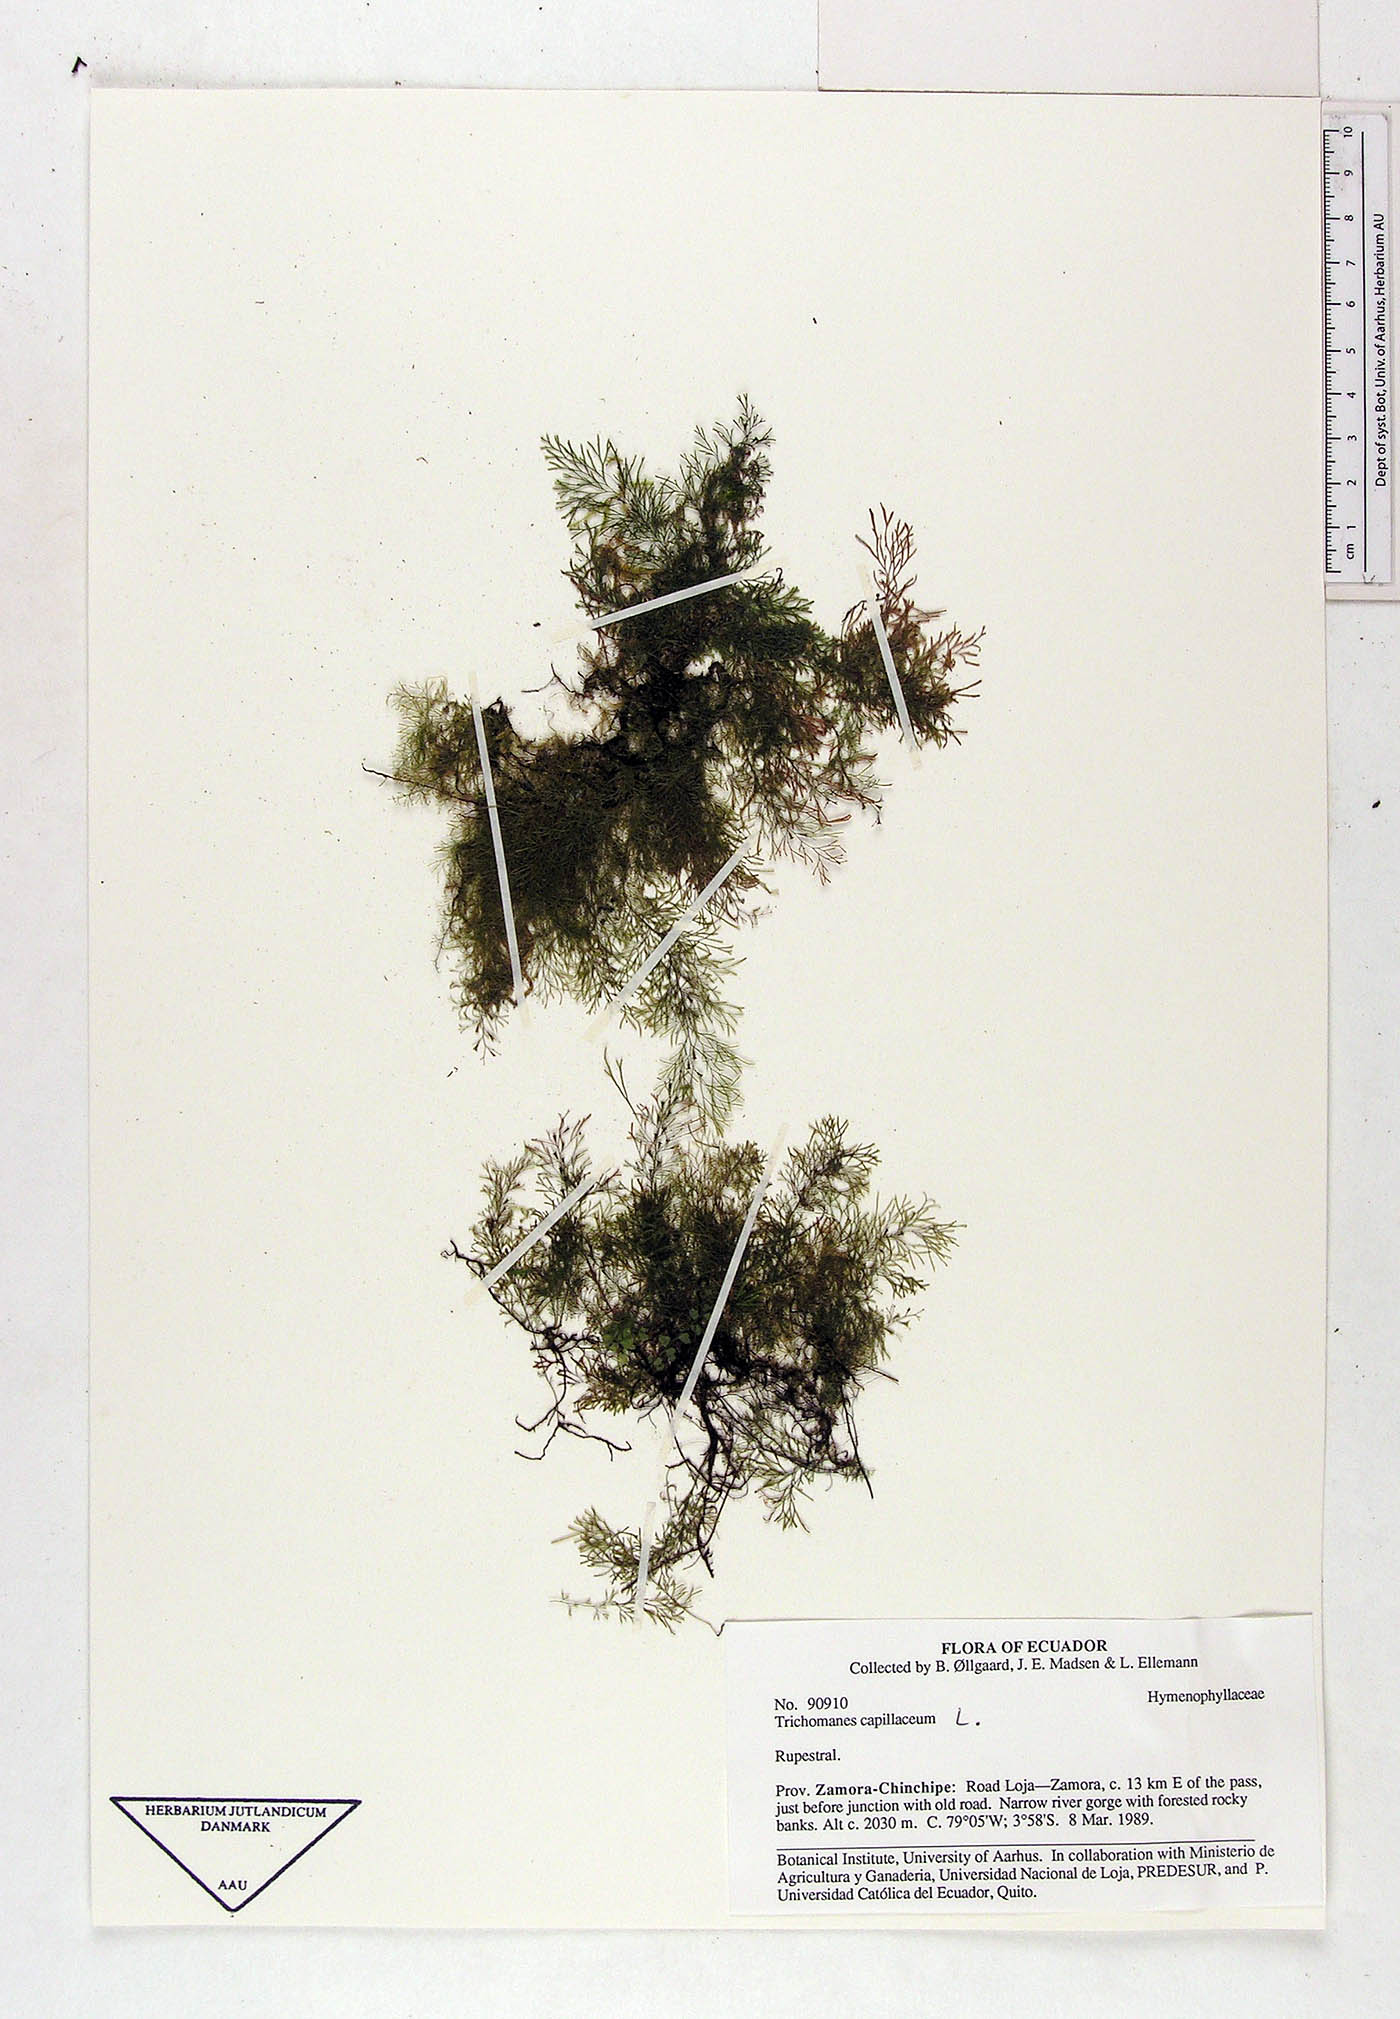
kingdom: Plantae
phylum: Tracheophyta
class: Polypodiopsida
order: Hymenophyllales
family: Hymenophyllaceae
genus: Polyphlebium
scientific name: Polyphlebium capillaceum
